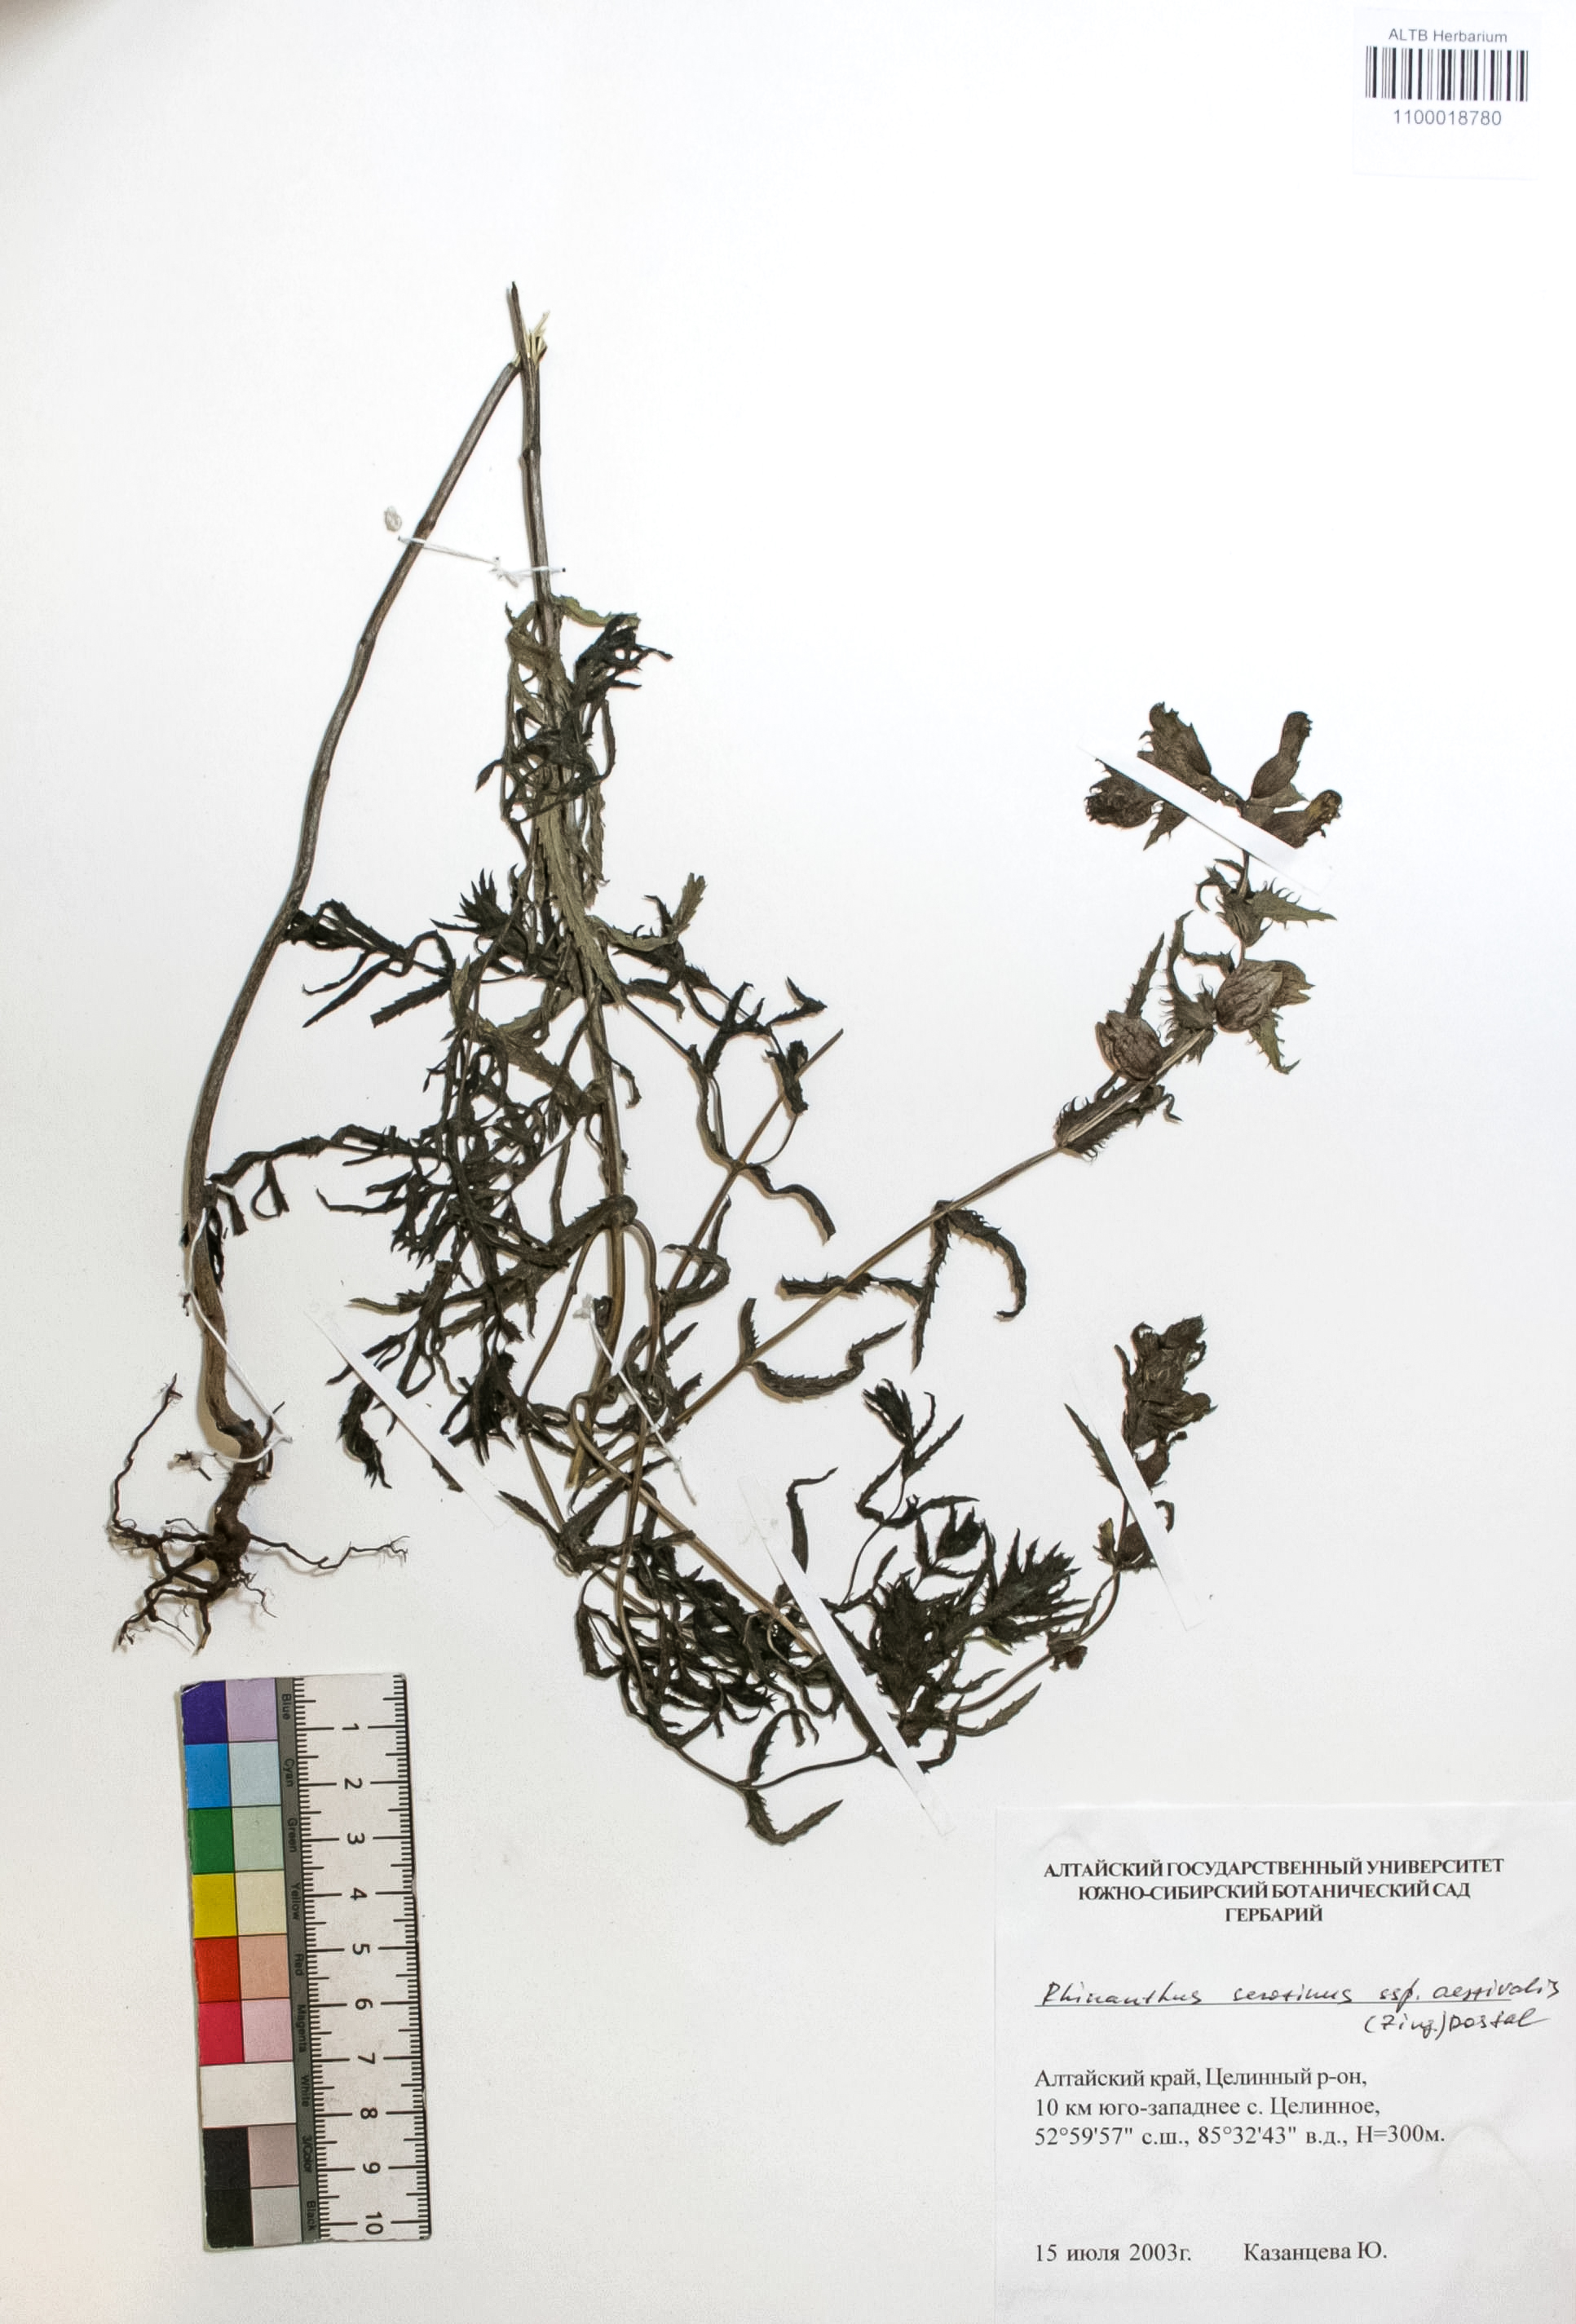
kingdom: Plantae
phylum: Tracheophyta
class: Magnoliopsida
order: Lamiales
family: Orobanchaceae
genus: Rhinanthus
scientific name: Rhinanthus serotinus
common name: Late-flowering yellow rattle
